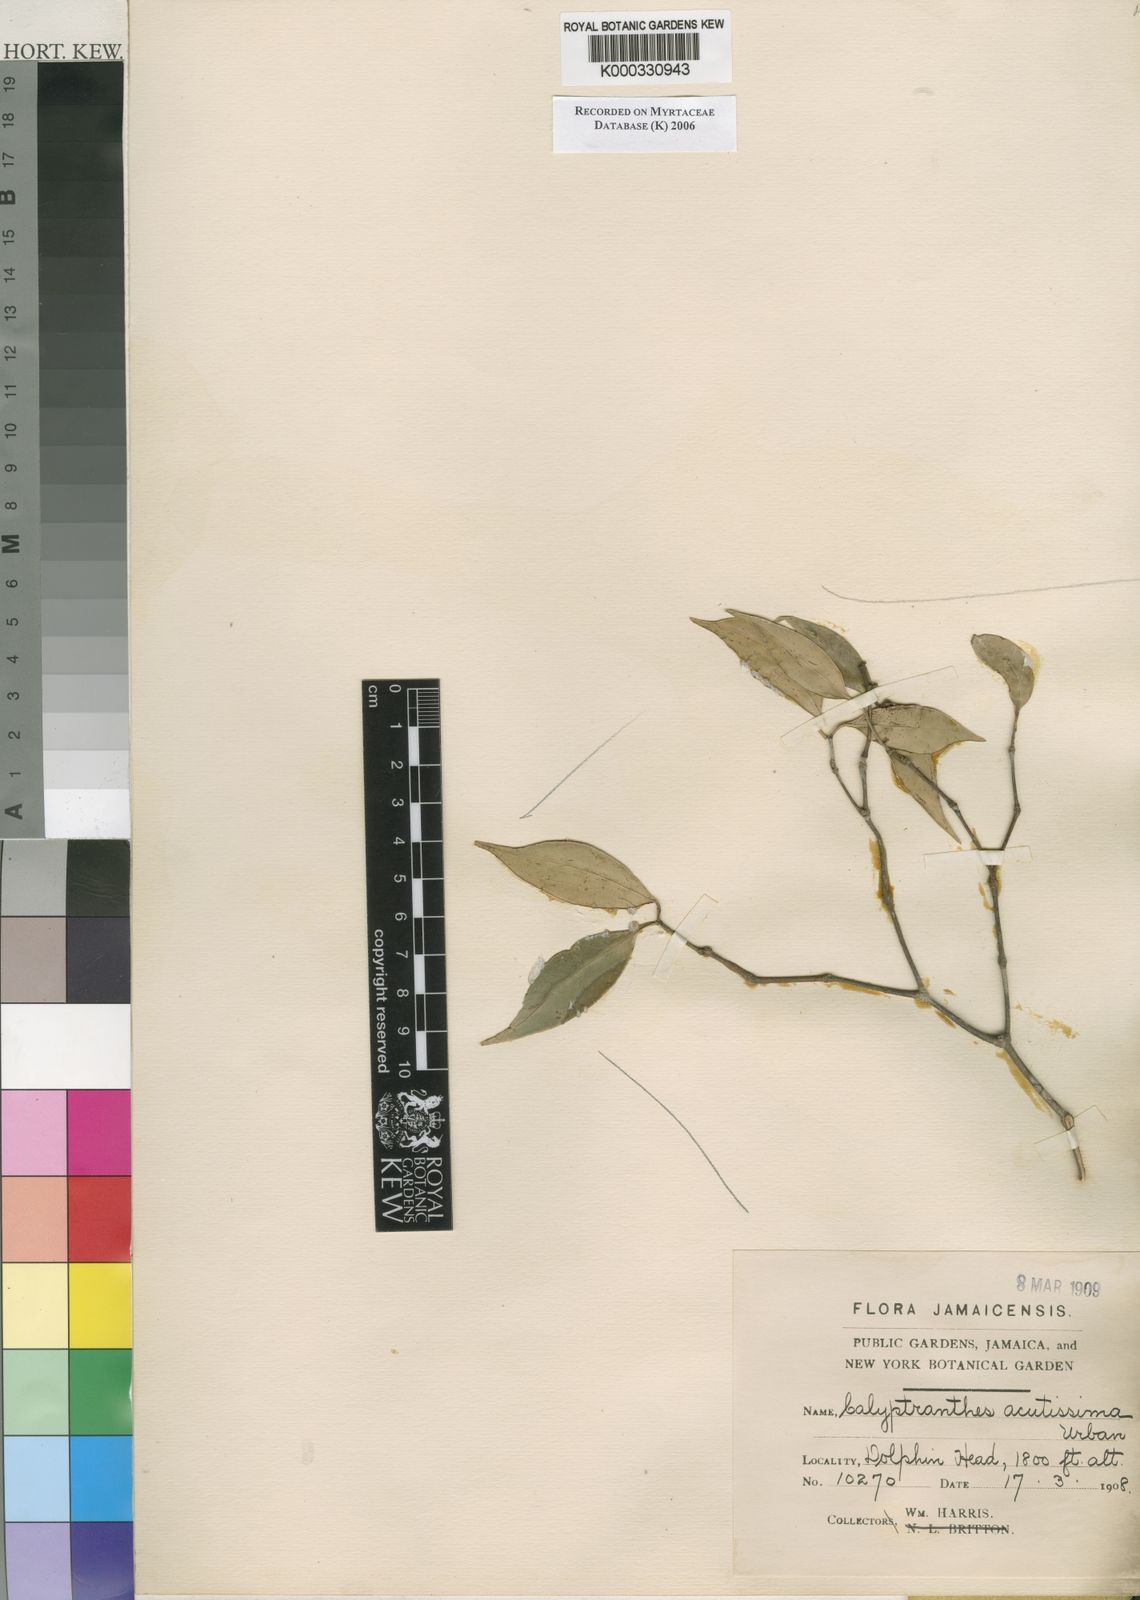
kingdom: Plantae
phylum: Tracheophyta
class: Magnoliopsida
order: Myrtales
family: Myrtaceae
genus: Myrcia
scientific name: Myrcia acutissima
